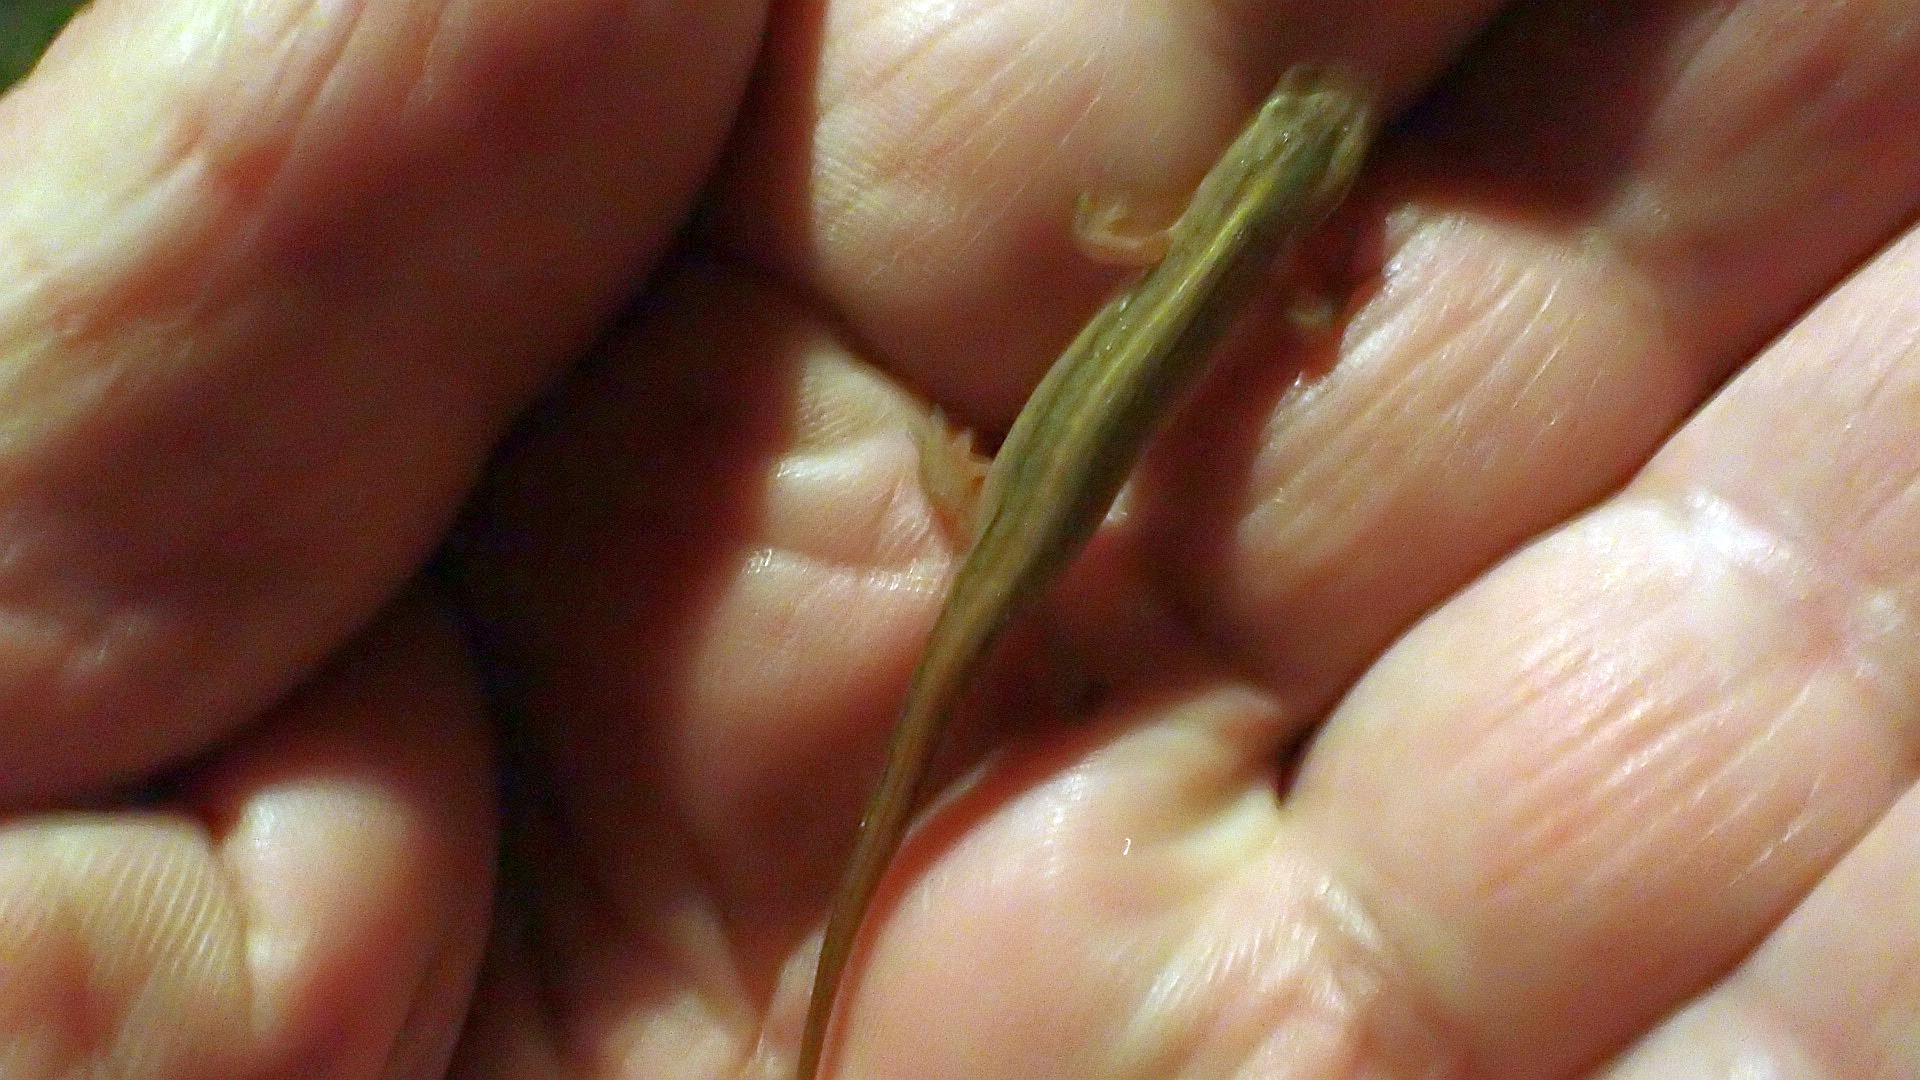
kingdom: Animalia
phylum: Chordata
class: Amphibia
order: Caudata
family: Salamandridae
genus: Lissotriton
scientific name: Lissotriton vulgaris
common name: Lille vandsalamander
